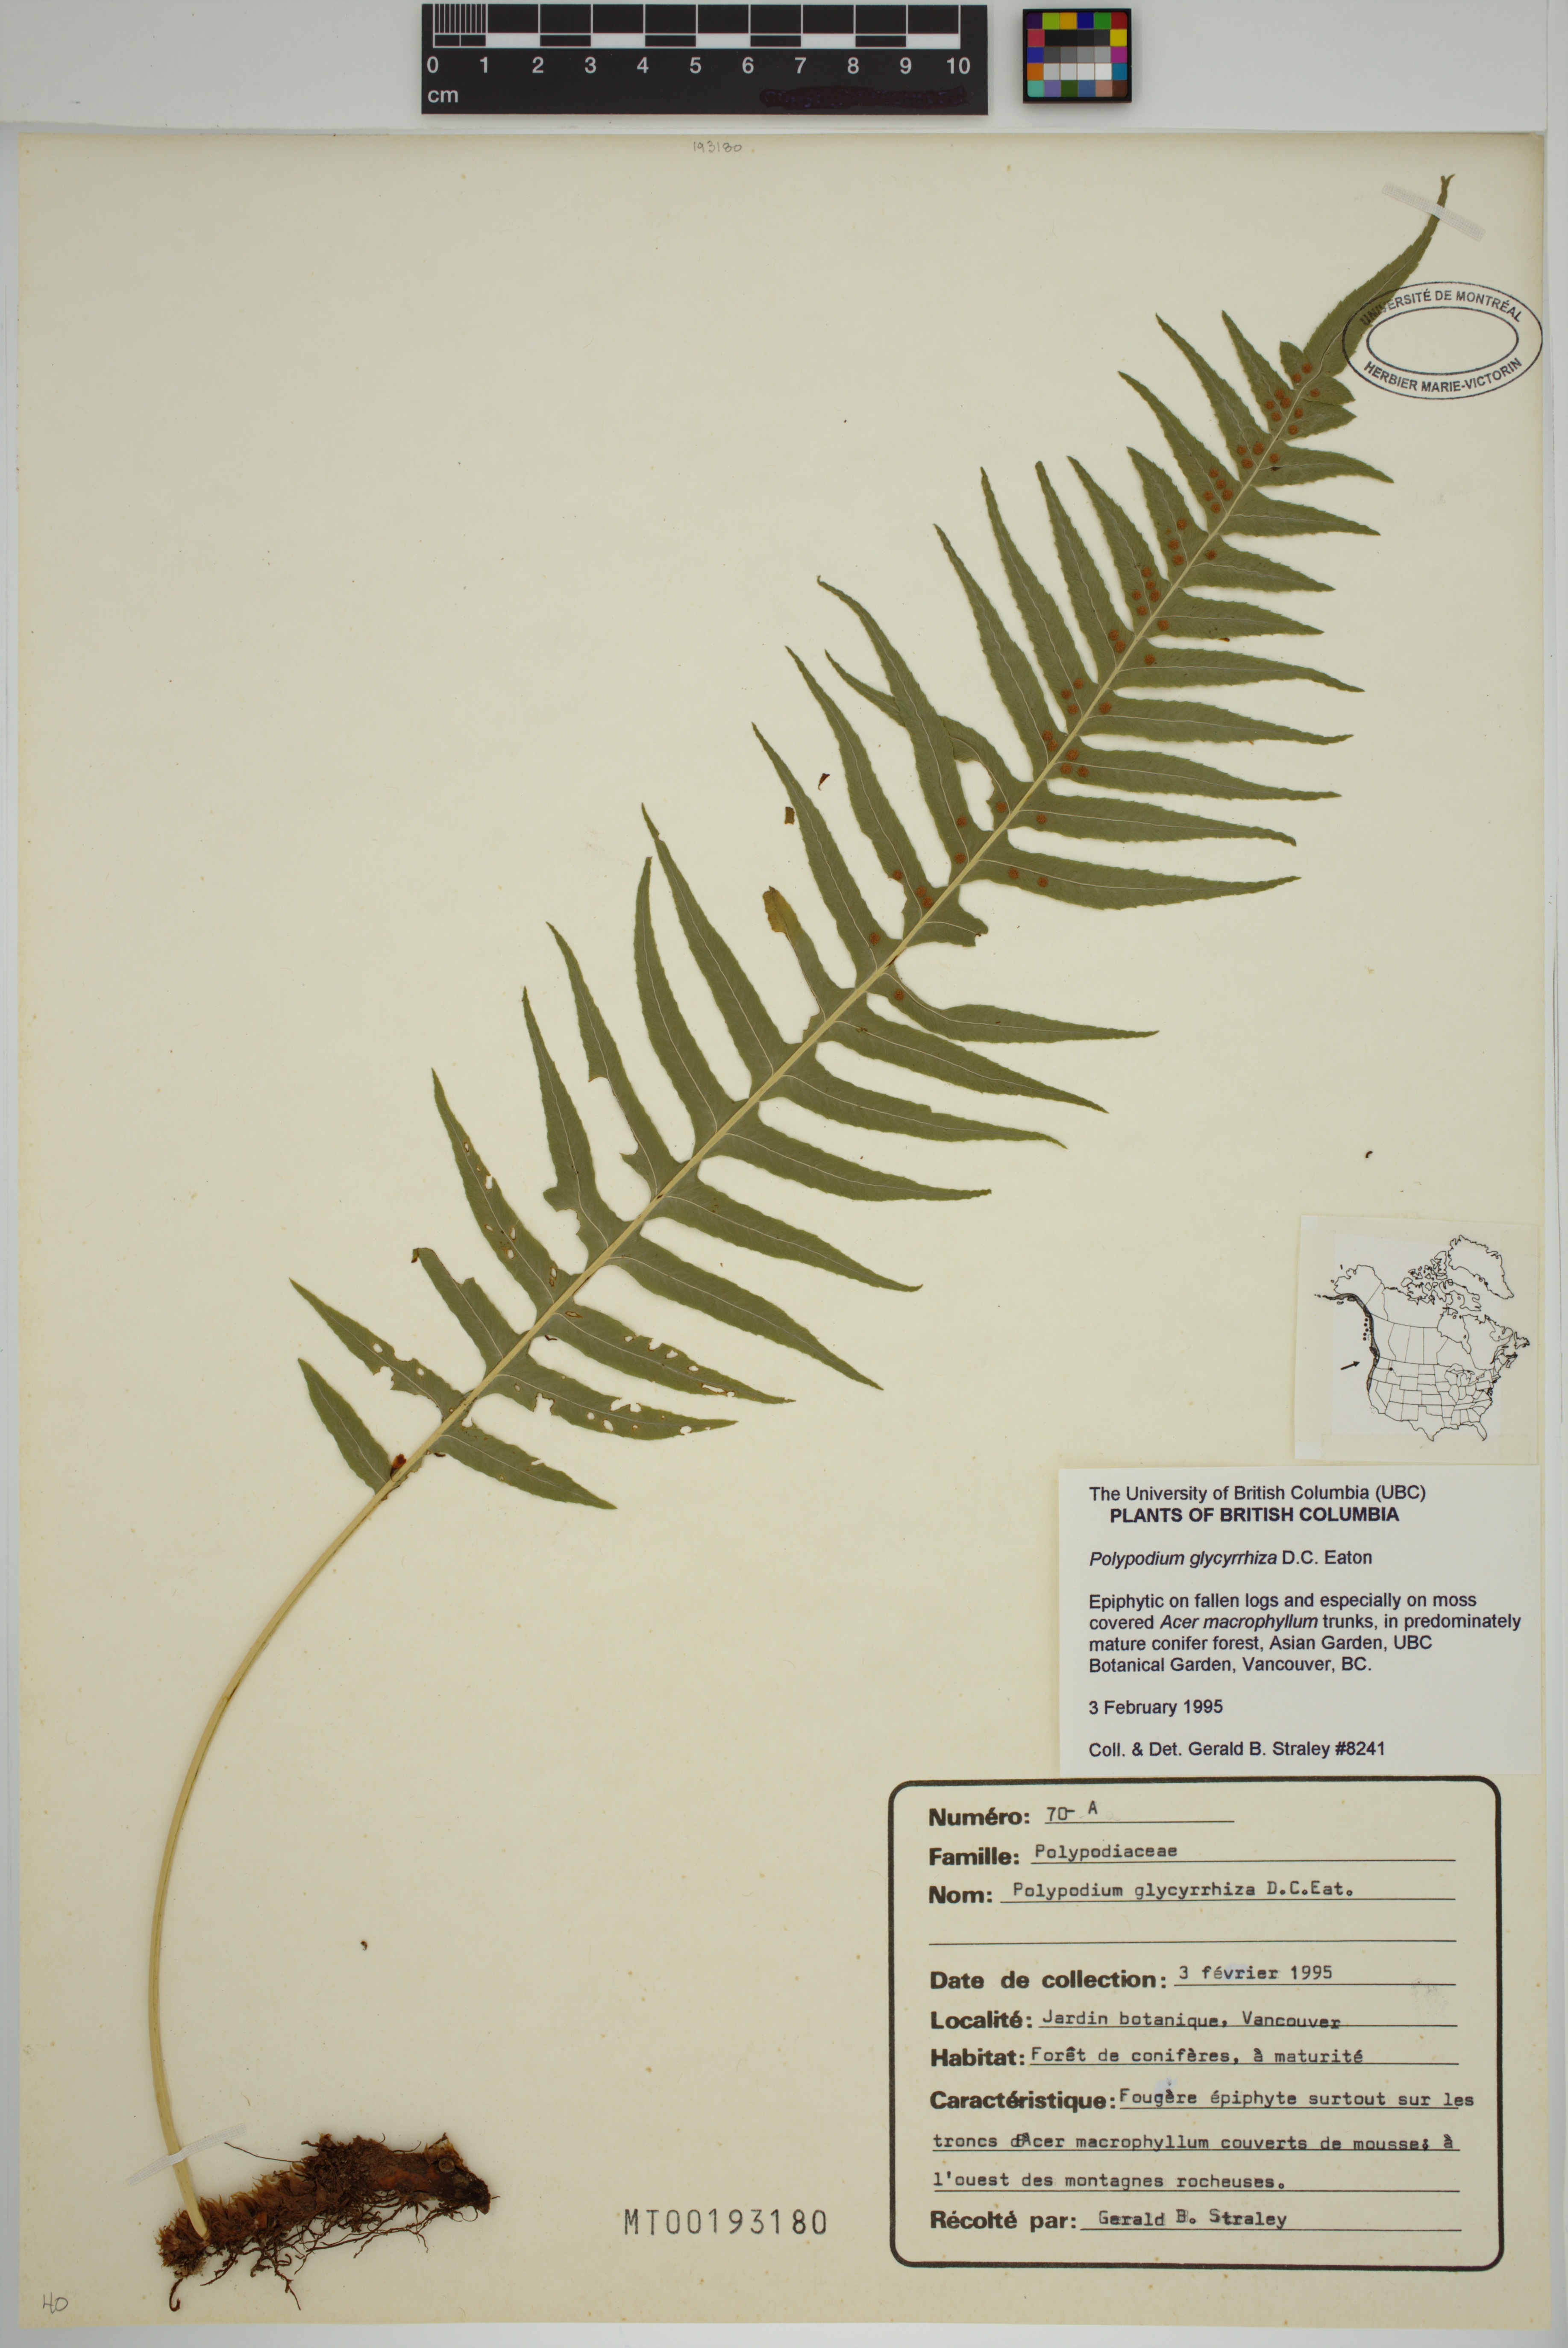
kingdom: Plantae
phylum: Tracheophyta
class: Polypodiopsida
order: Polypodiales
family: Polypodiaceae
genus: Polypodium
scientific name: Polypodium glycyrrhiza
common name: Licorice fern
